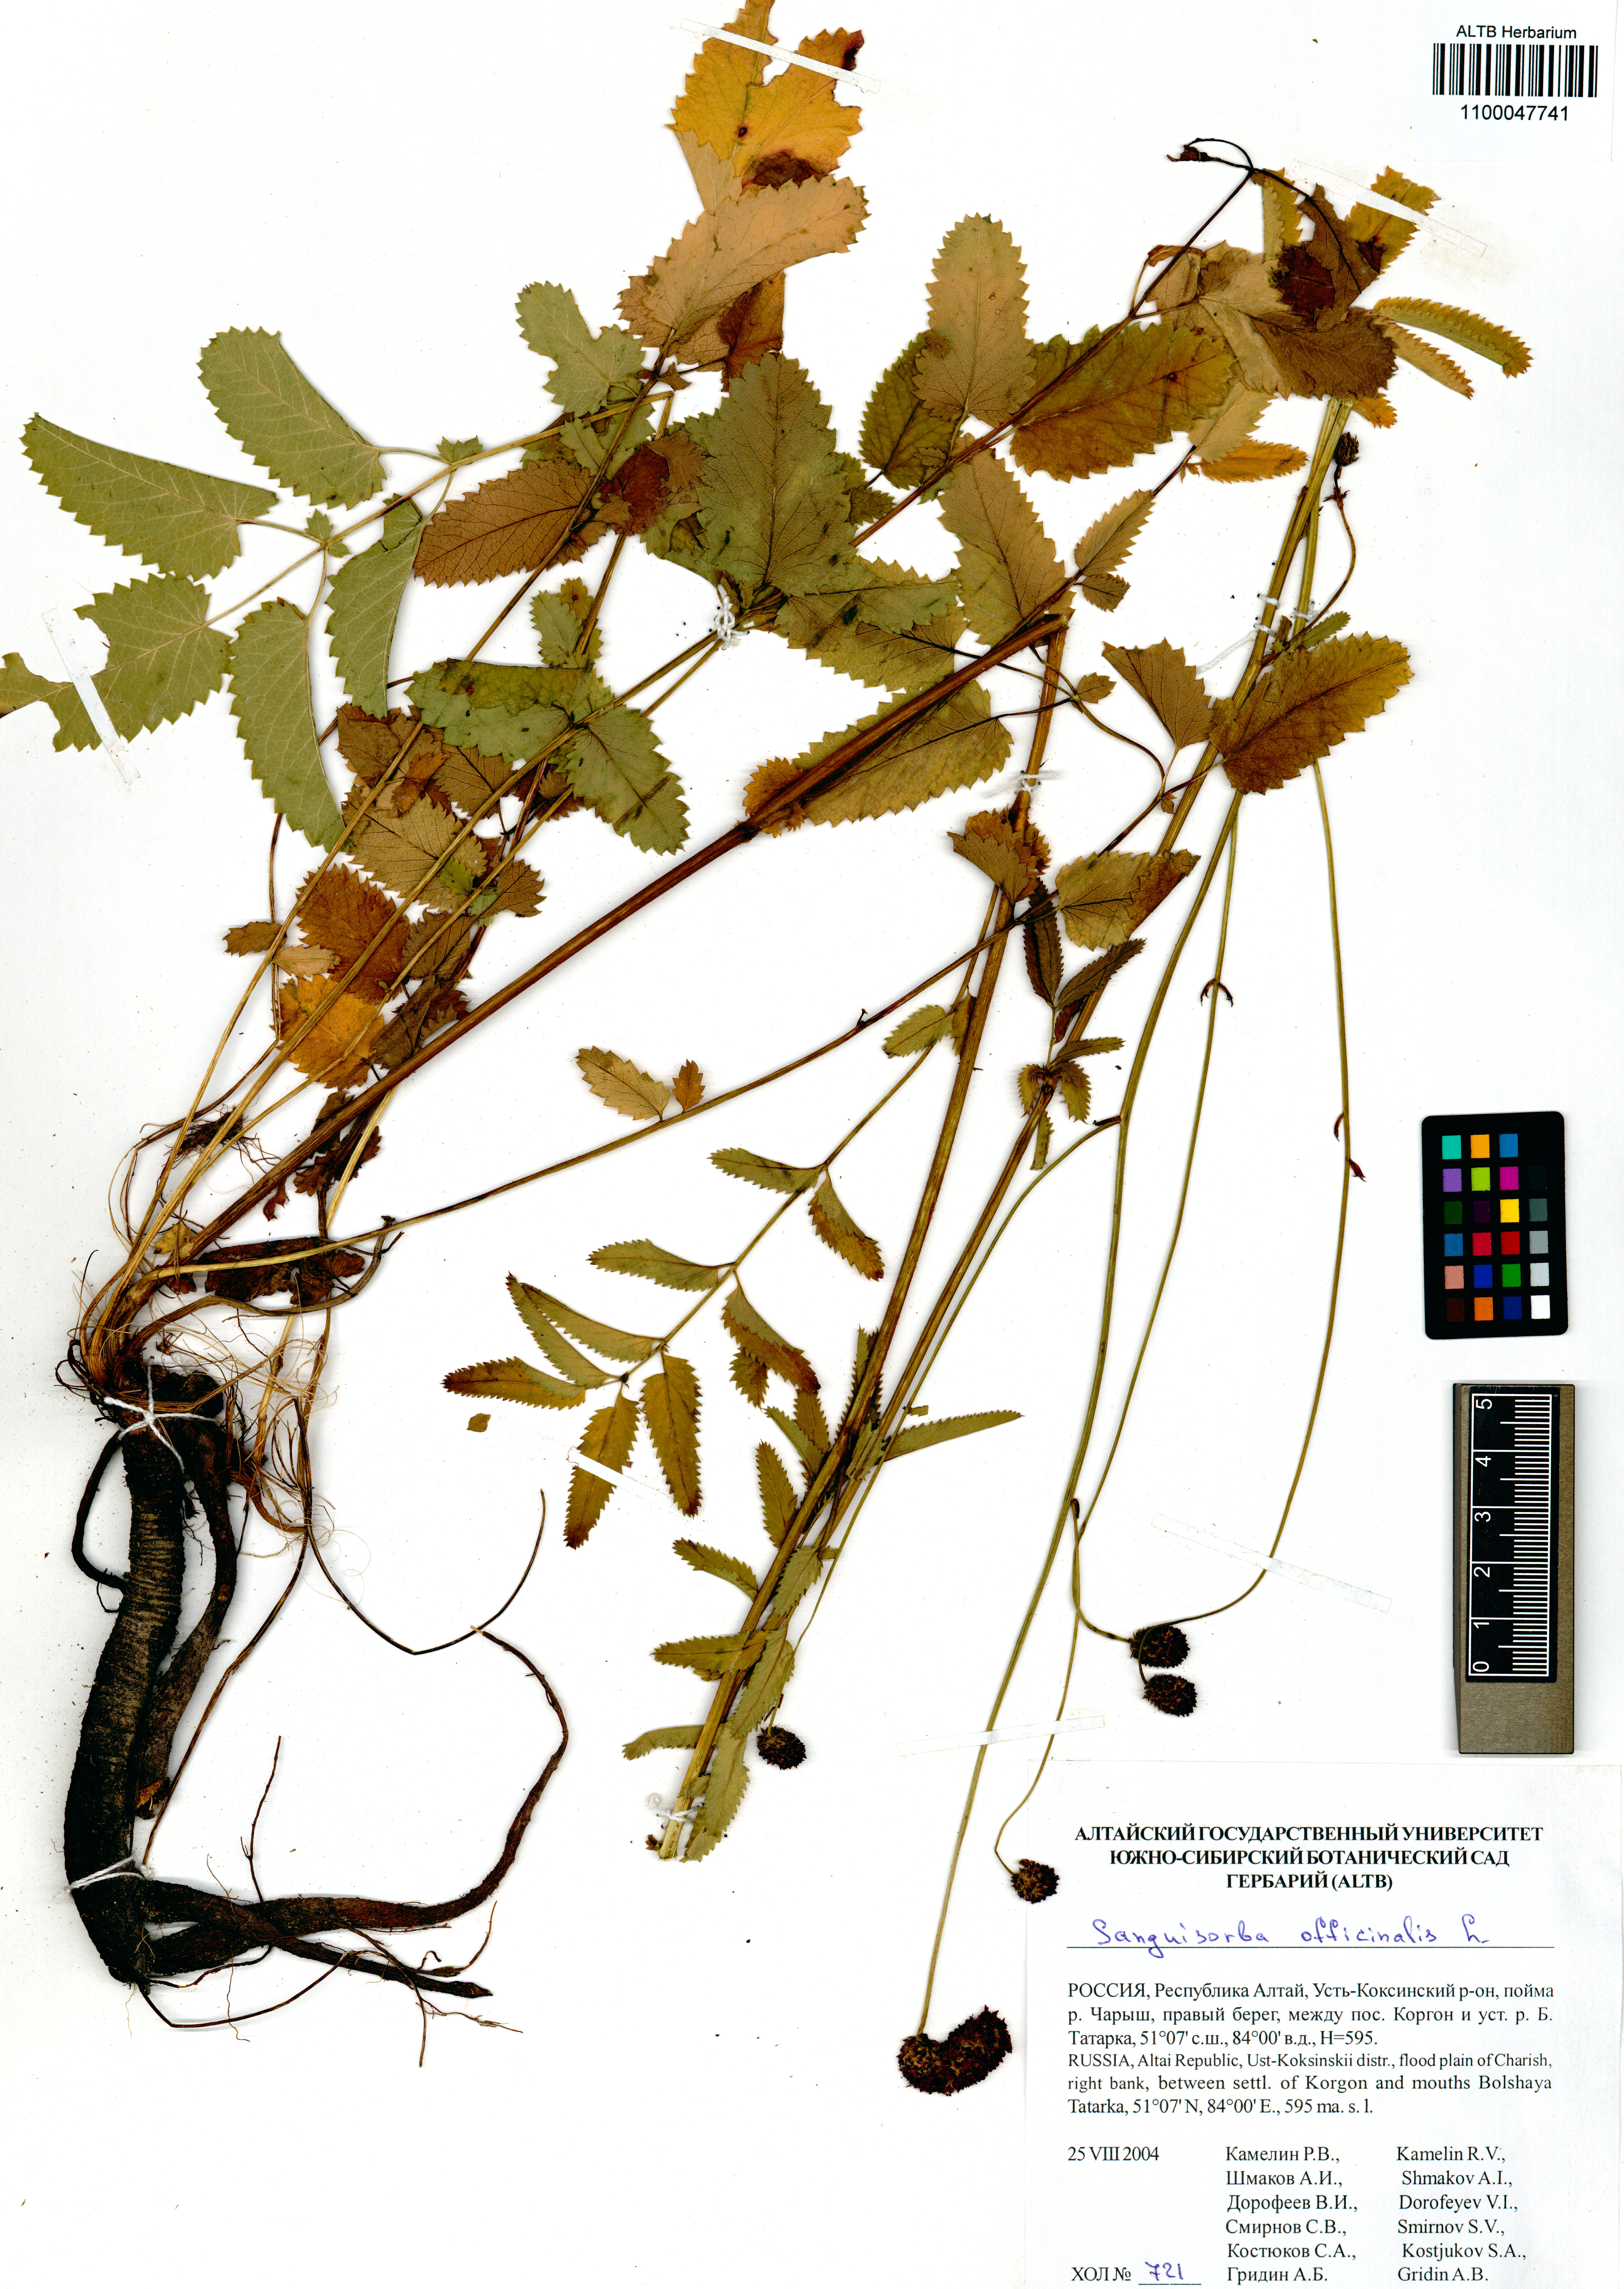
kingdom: Plantae
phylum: Tracheophyta
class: Magnoliopsida
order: Rosales
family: Rosaceae
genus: Sanguisorba
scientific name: Sanguisorba officinalis
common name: Great burnet
